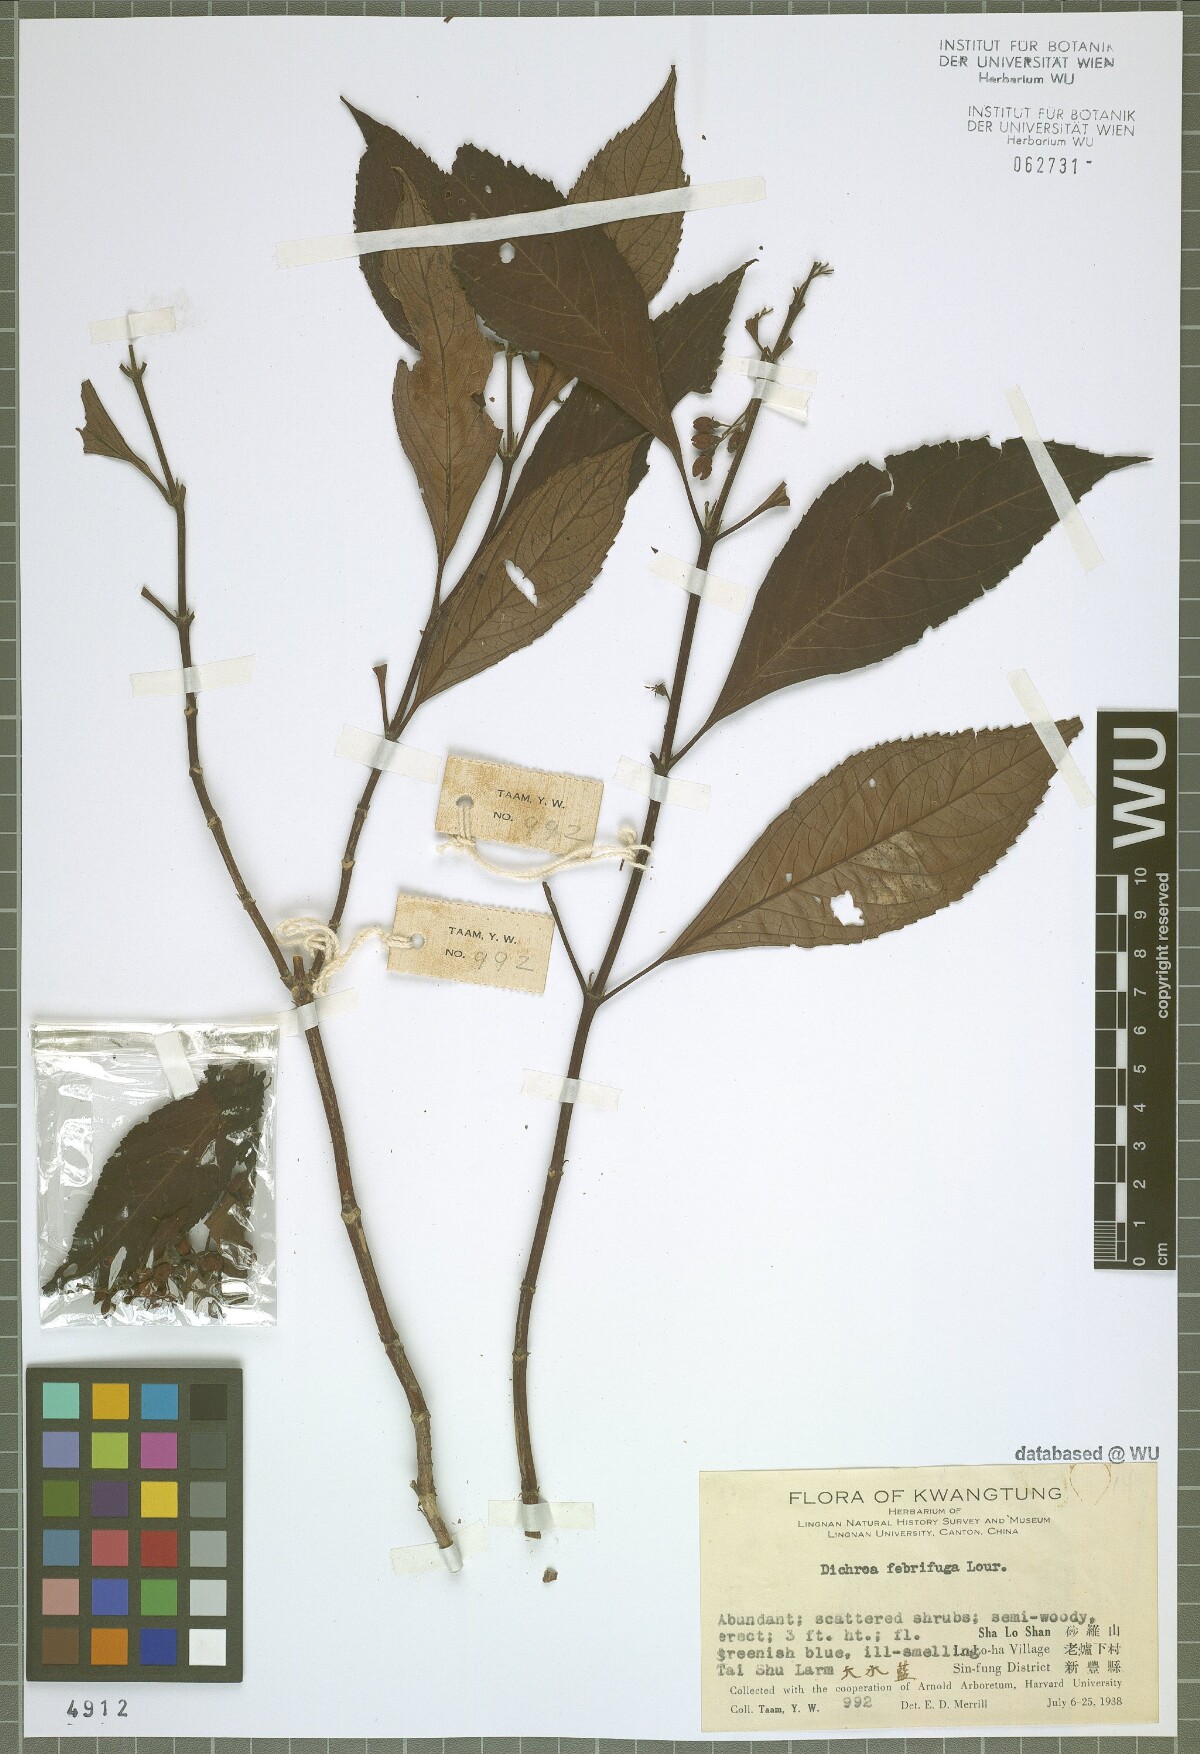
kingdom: Plantae
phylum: Tracheophyta
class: Magnoliopsida
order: Cornales
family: Hydrangeaceae
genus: Hydrangea
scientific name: Hydrangea febrifuga
